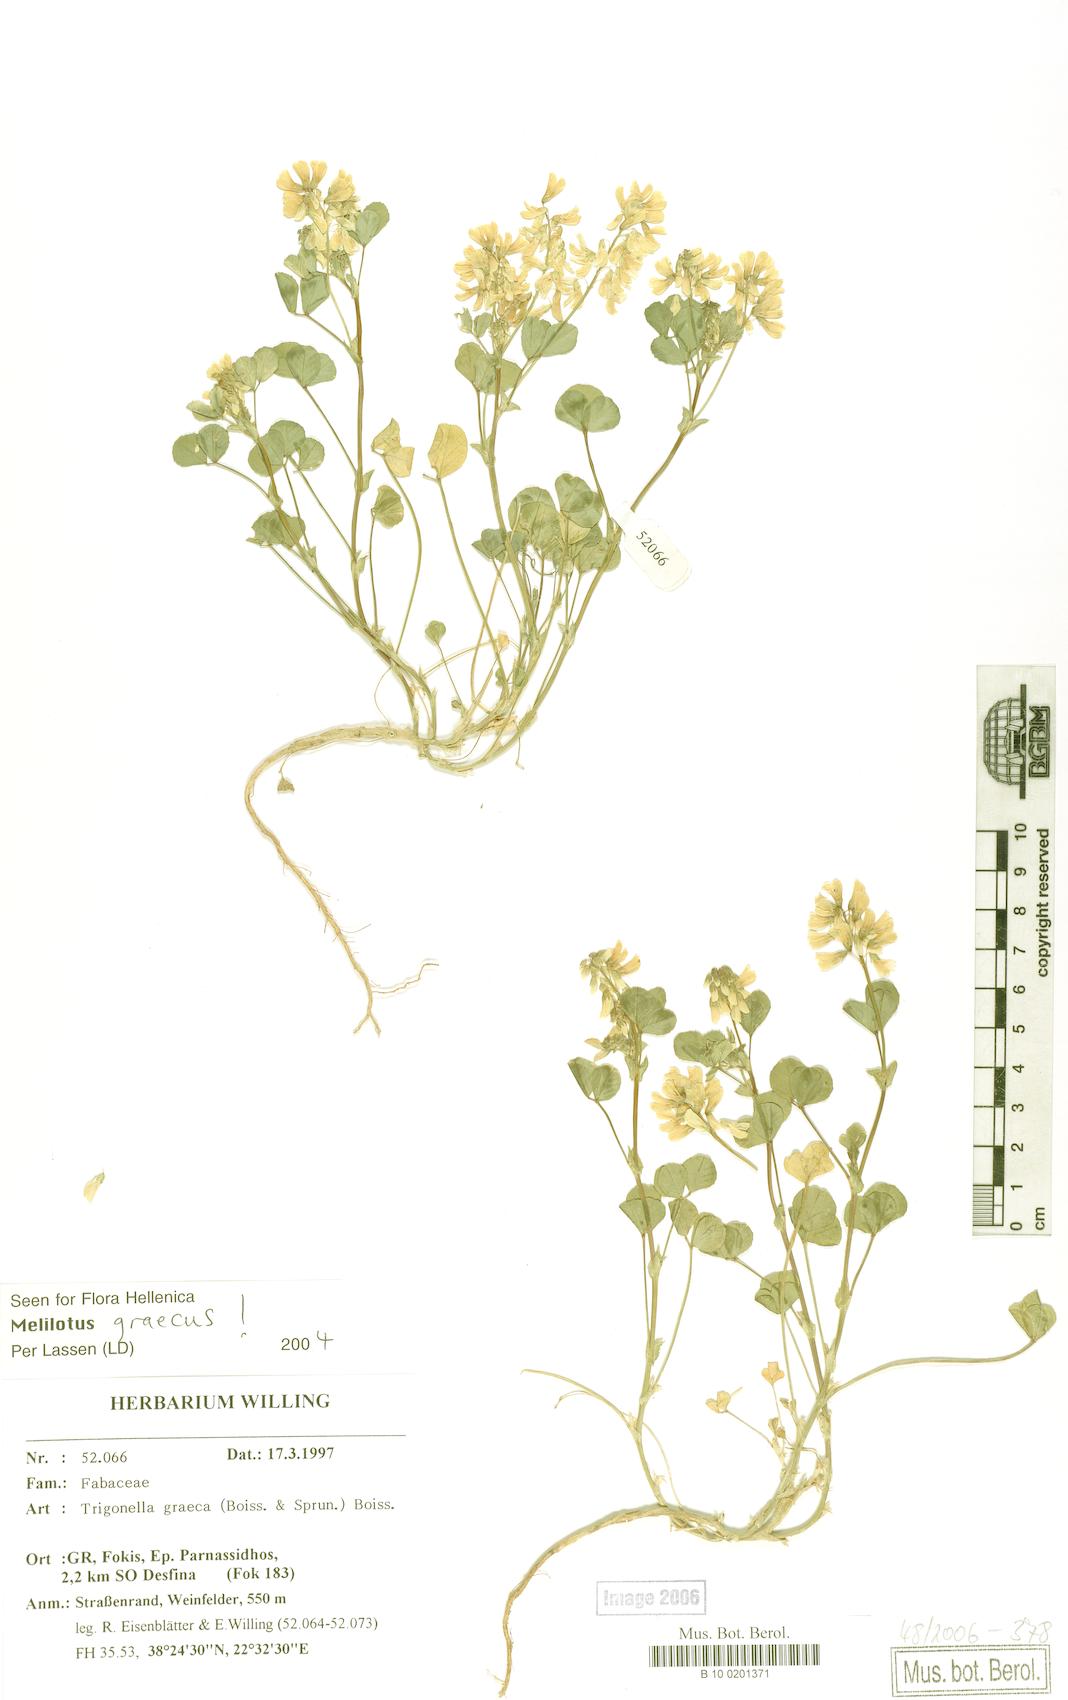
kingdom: Plantae
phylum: Tracheophyta
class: Magnoliopsida
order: Fabales
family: Fabaceae
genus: Trigonella
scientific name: Trigonella graeca
